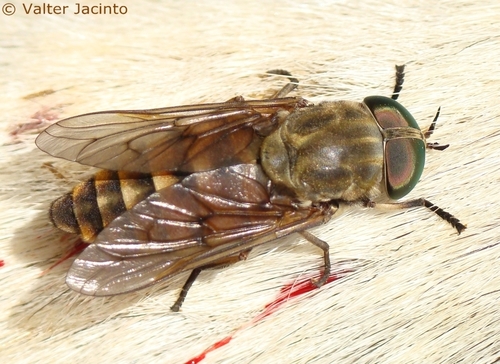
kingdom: Animalia
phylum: Arthropoda
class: Insecta
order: Diptera
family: Tabanidae
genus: Tabanus
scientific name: Tabanus eggeri
